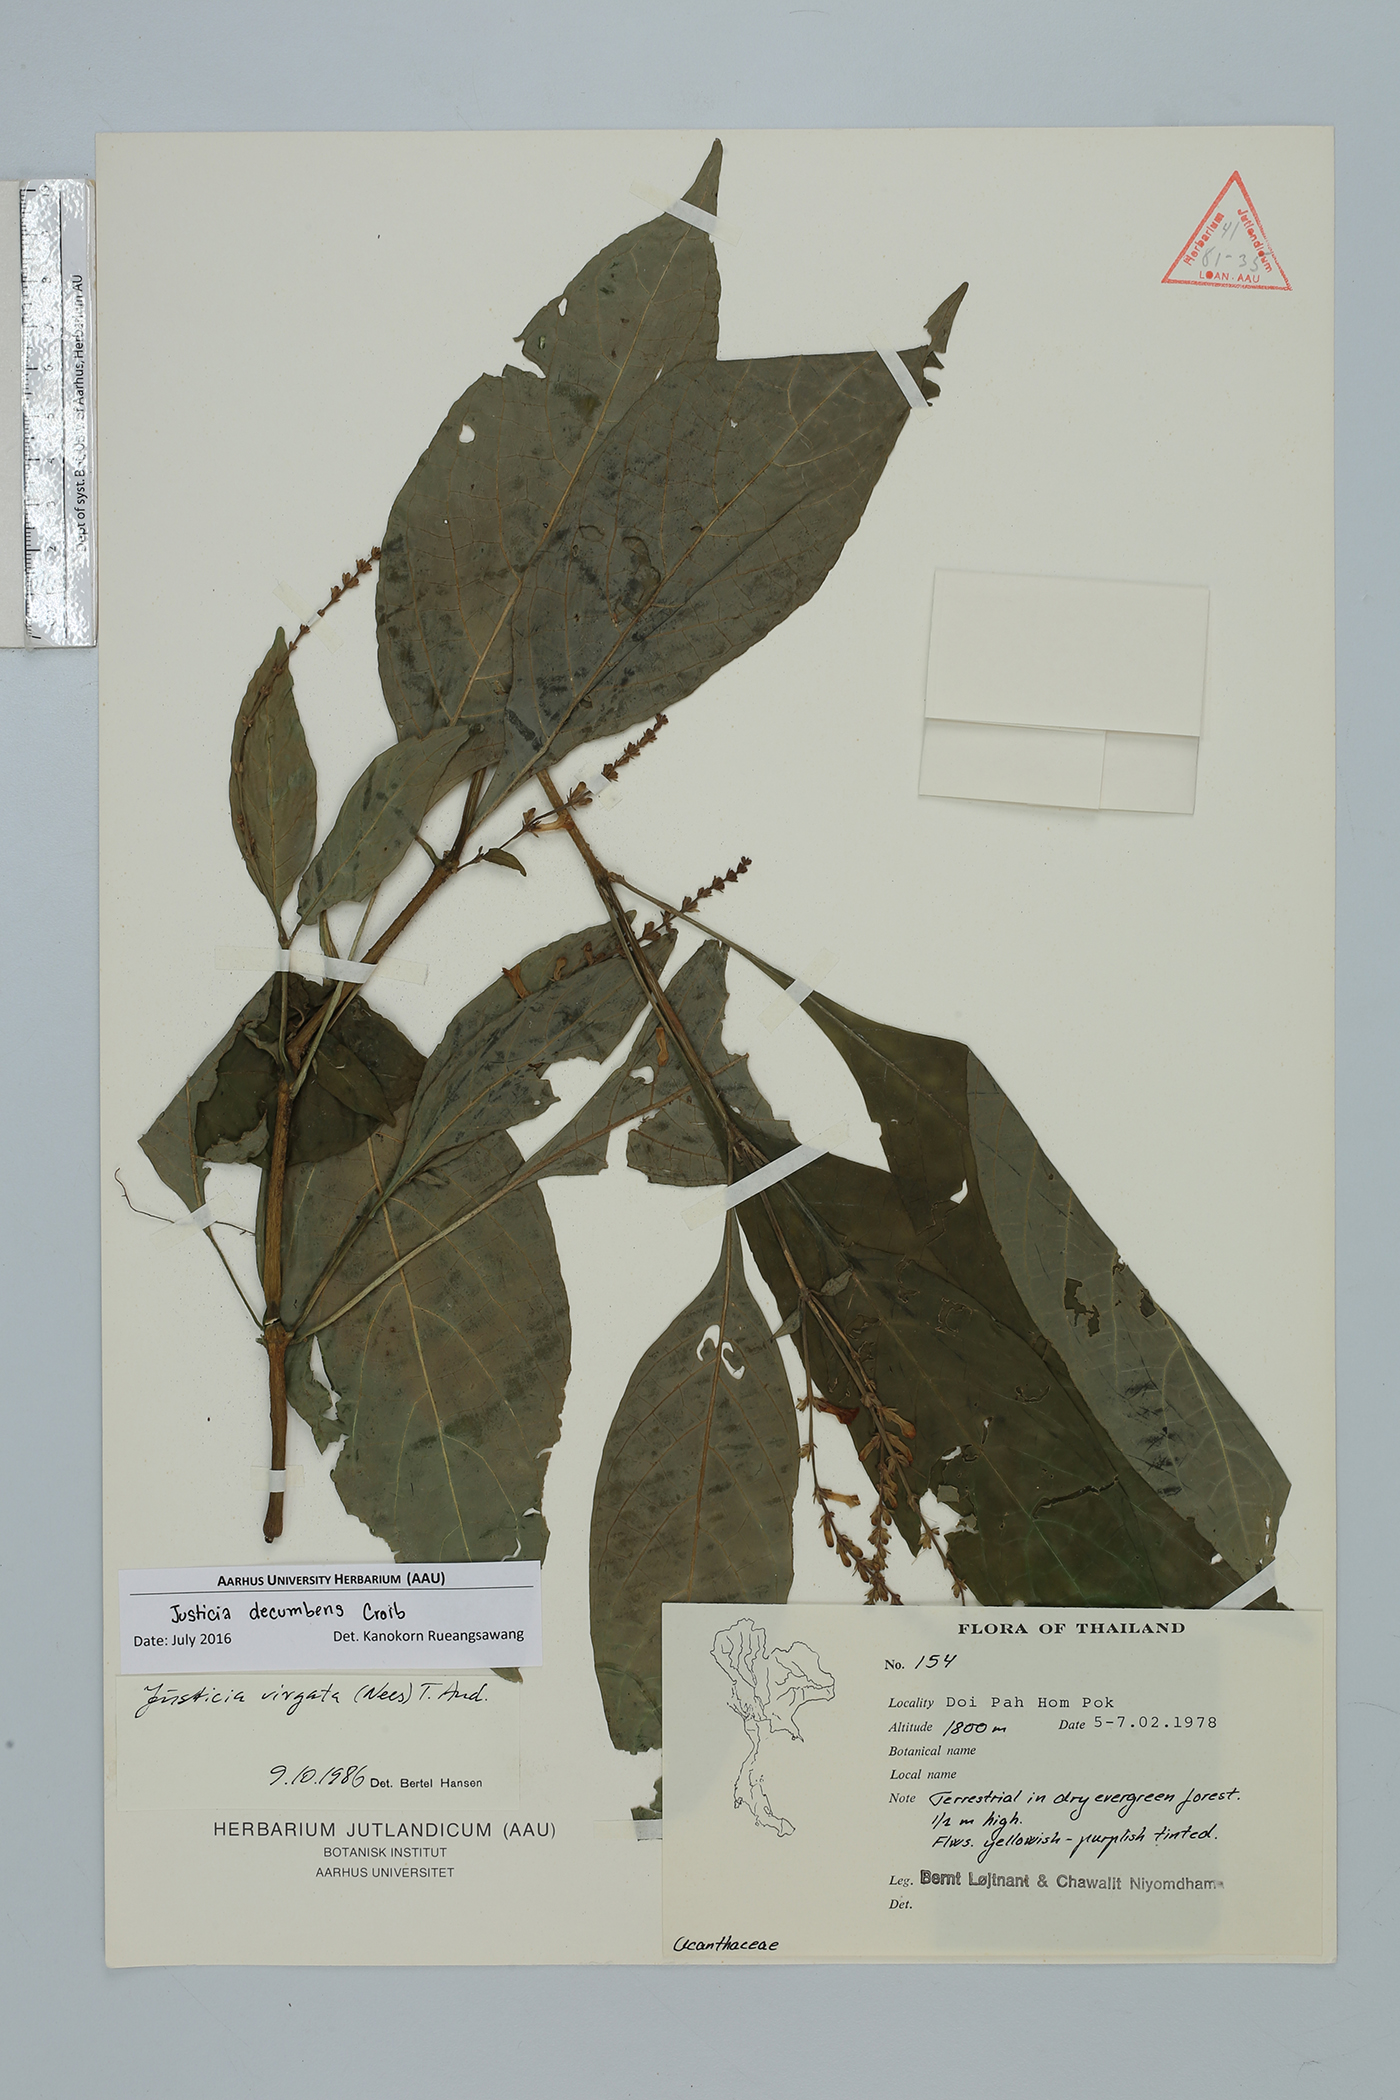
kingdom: Plantae
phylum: Tracheophyta
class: Magnoliopsida
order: Lamiales
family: Acanthaceae
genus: Justicia
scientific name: Justicia decumbens
